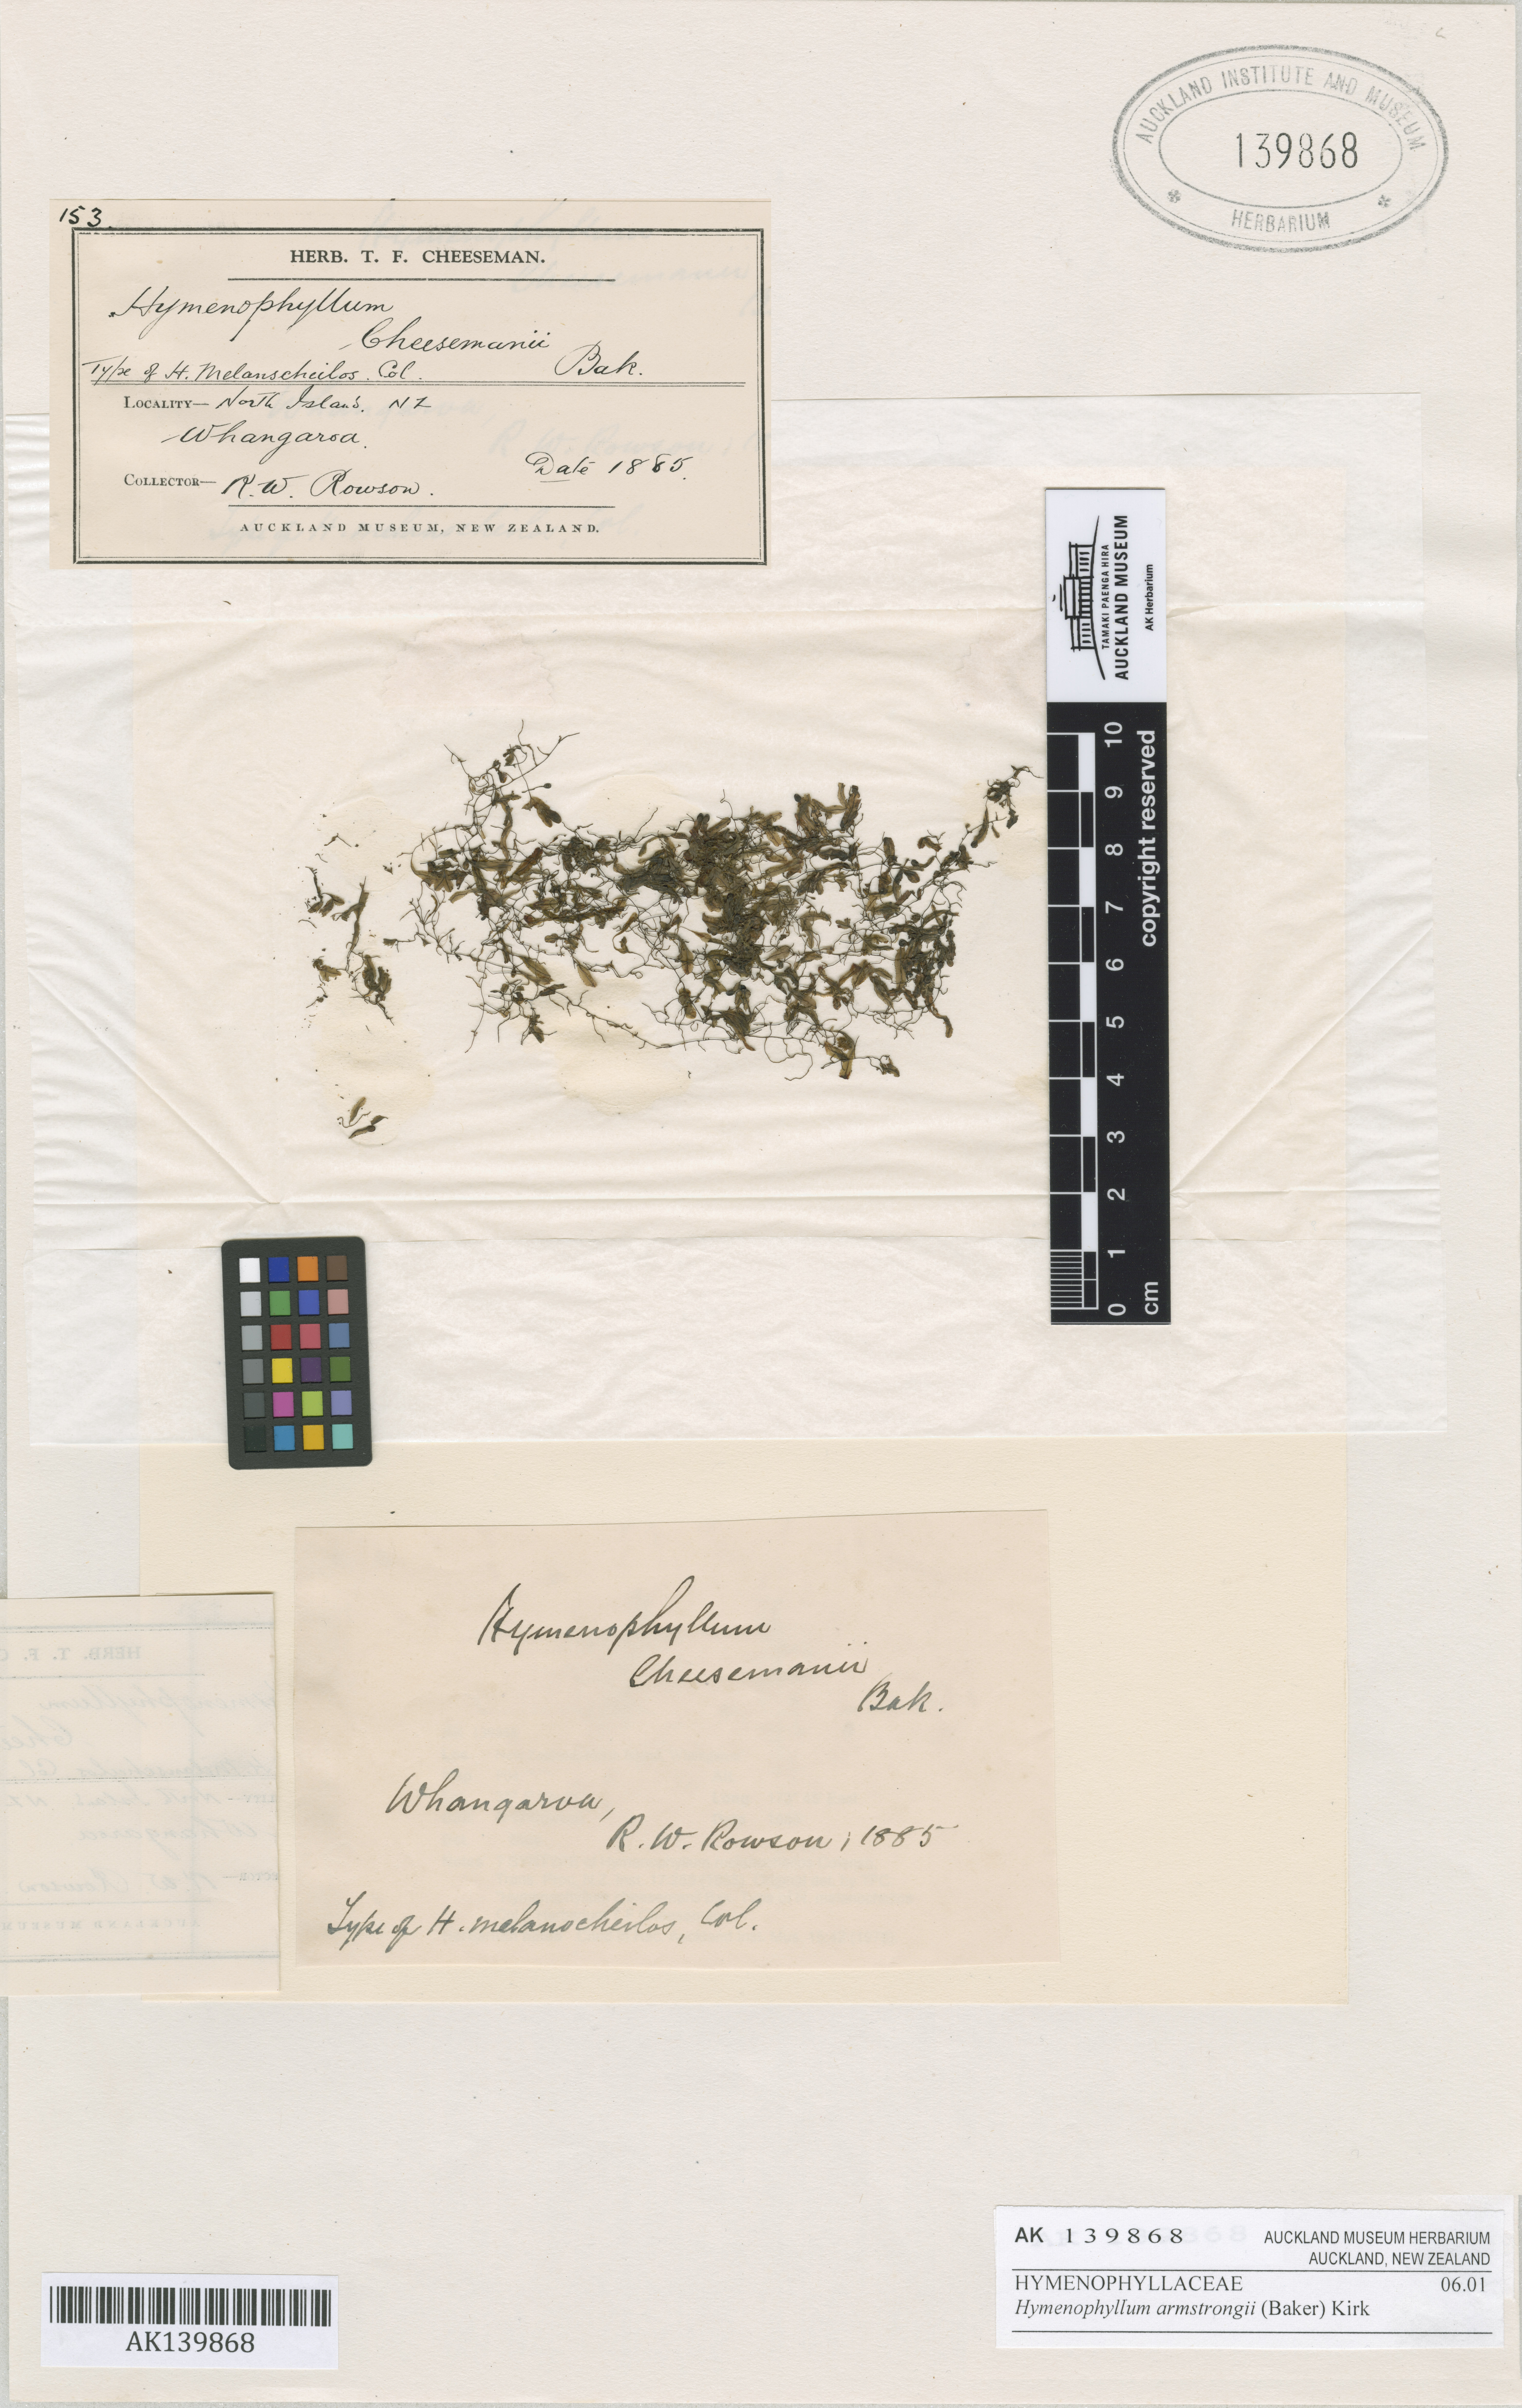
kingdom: Plantae
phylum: Tracheophyta
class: Polypodiopsida
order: Hymenophyllales
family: Hymenophyllaceae
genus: Hymenophyllum
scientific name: Hymenophyllum armstrongii
